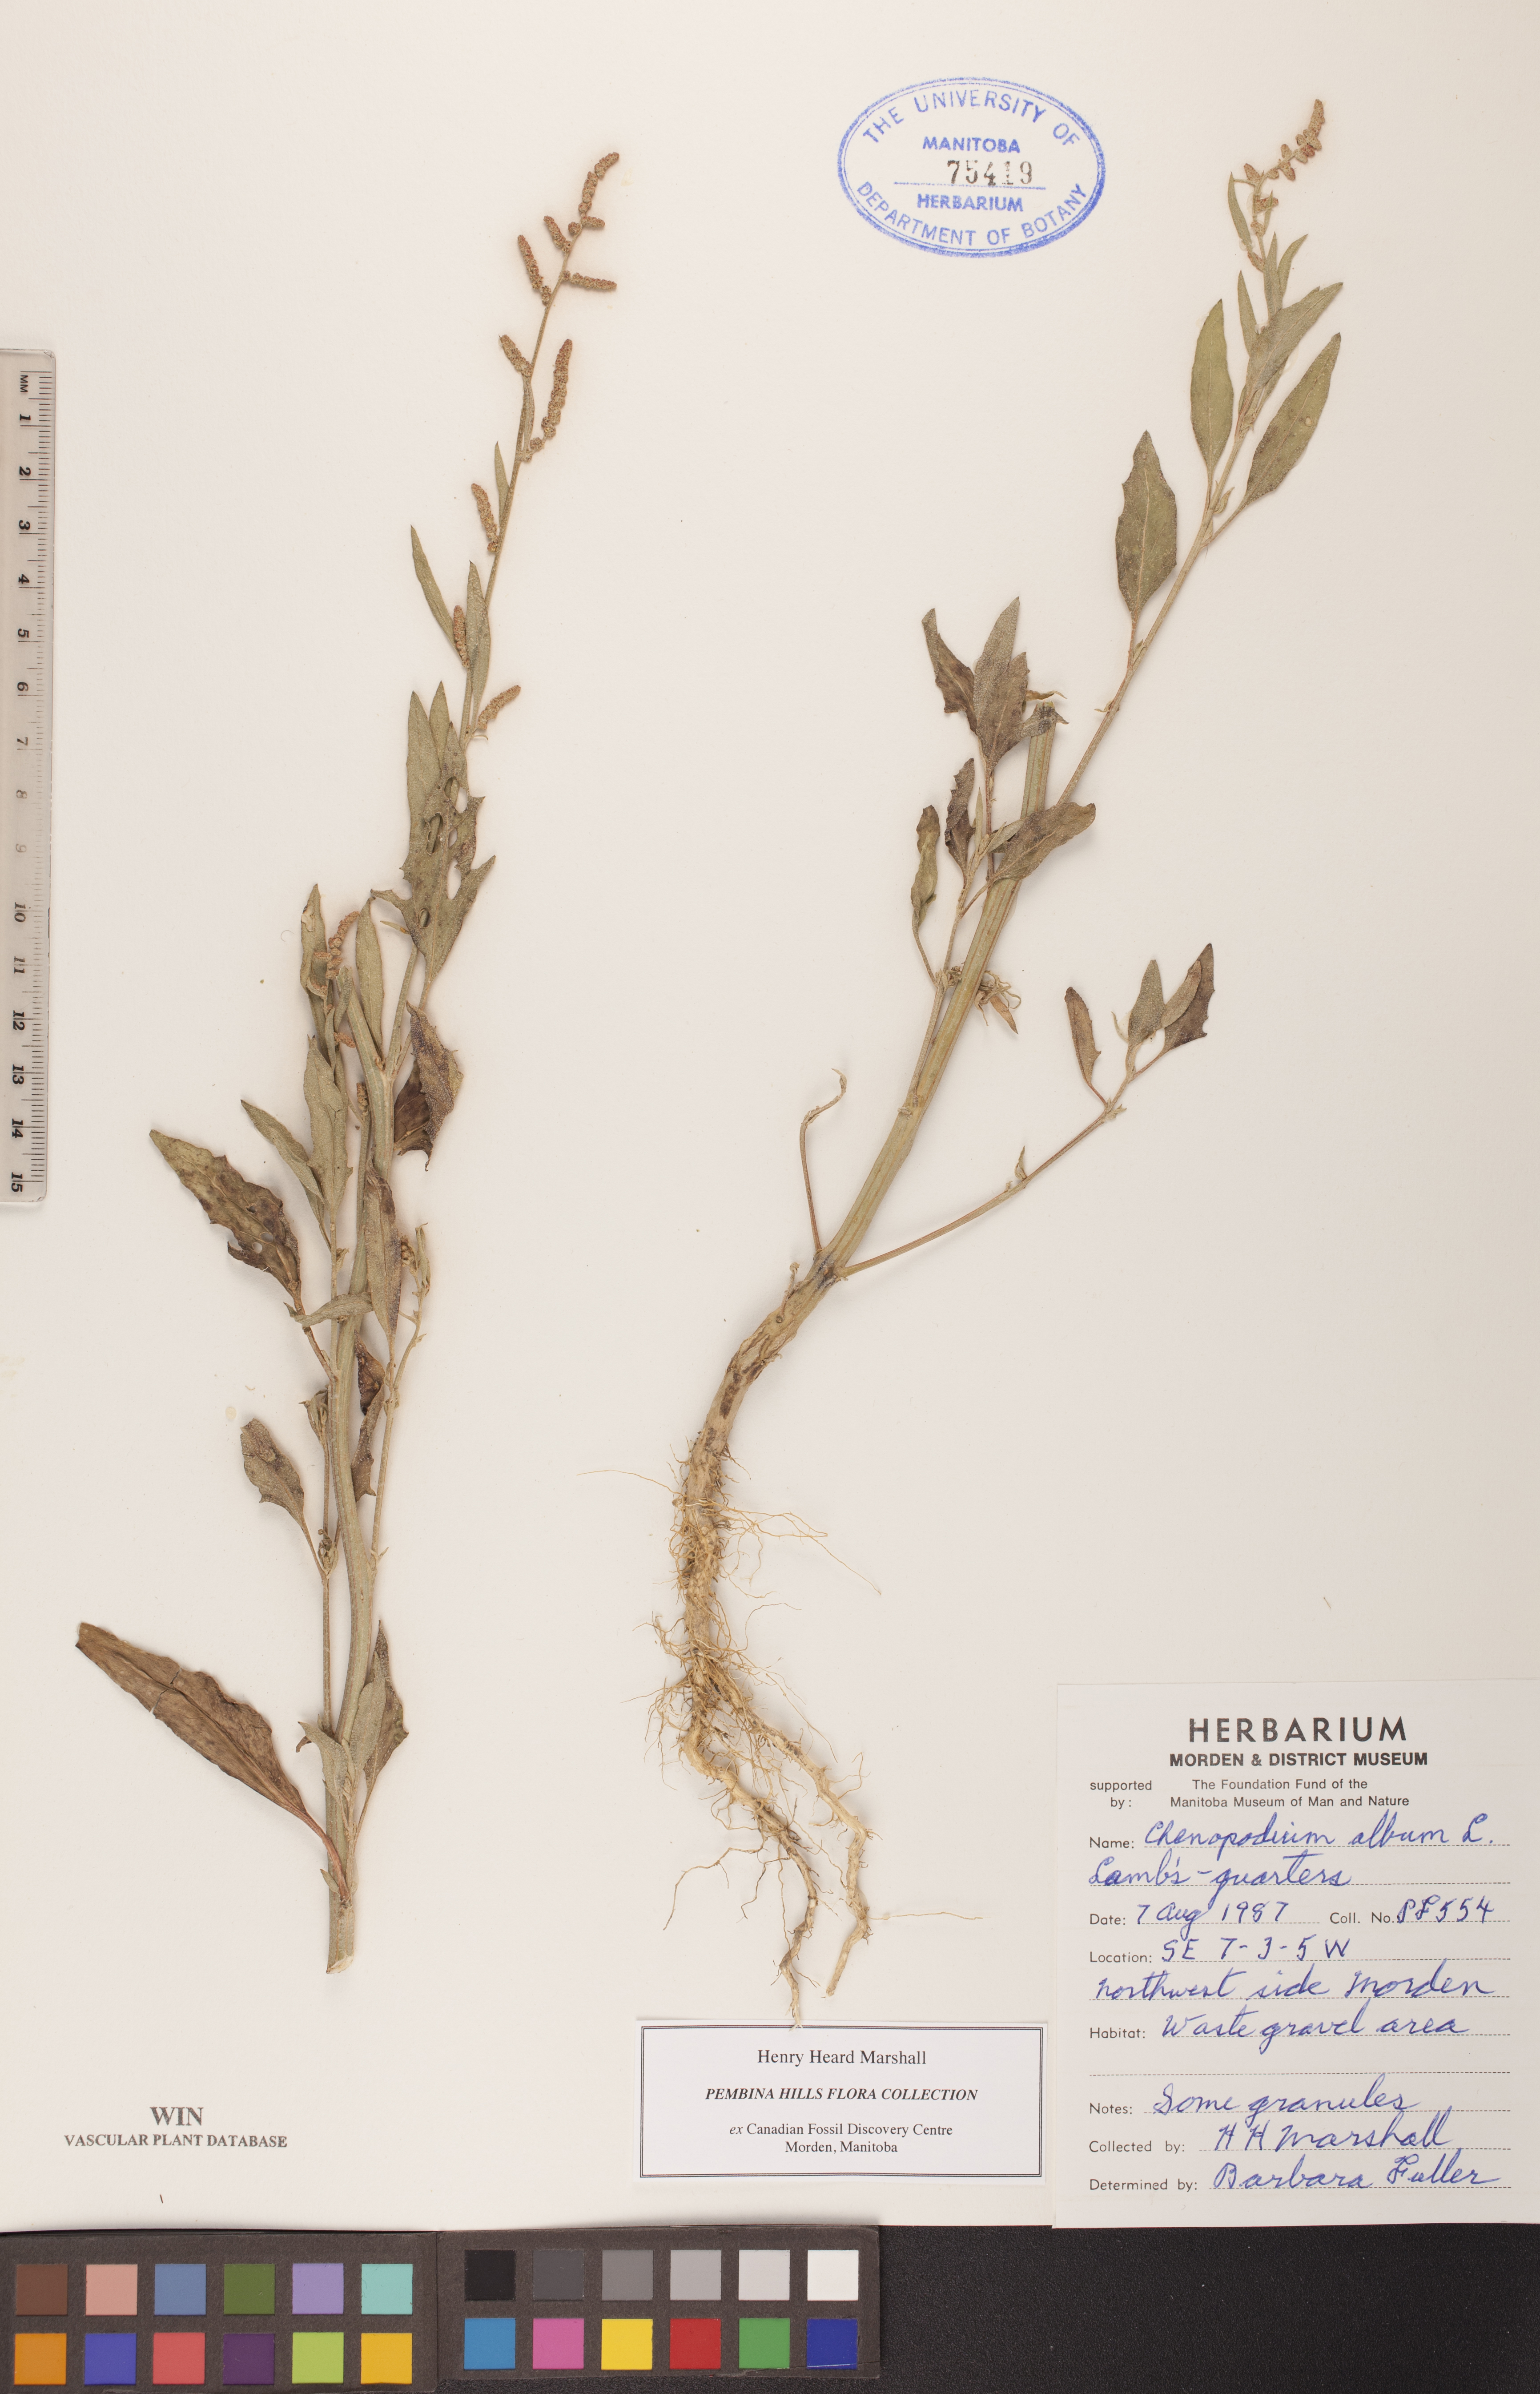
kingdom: Plantae
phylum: Tracheophyta
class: Magnoliopsida
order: Caryophyllales
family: Amaranthaceae
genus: Chenopodium
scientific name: Chenopodium album
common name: Fat-hen
